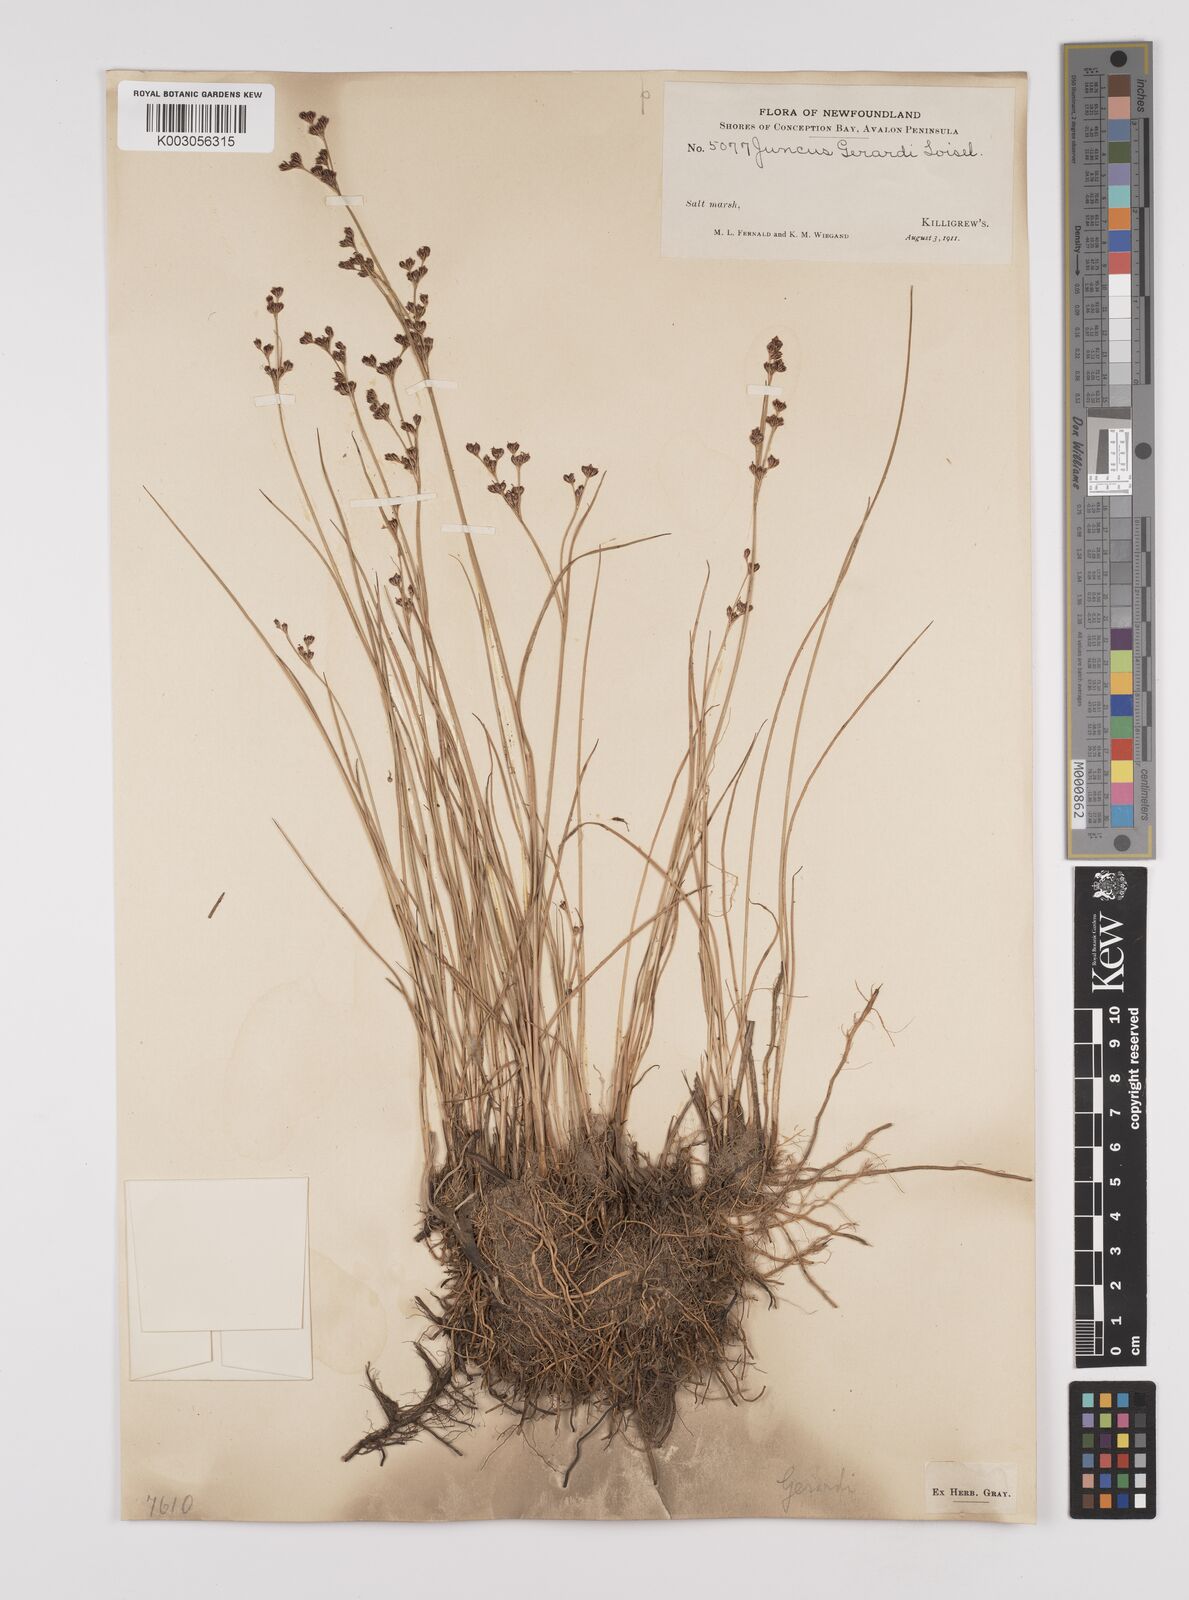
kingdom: Plantae
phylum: Tracheophyta
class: Liliopsida
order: Poales
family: Juncaceae
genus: Juncus
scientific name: Juncus gerardi
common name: Saltmarsh rush
